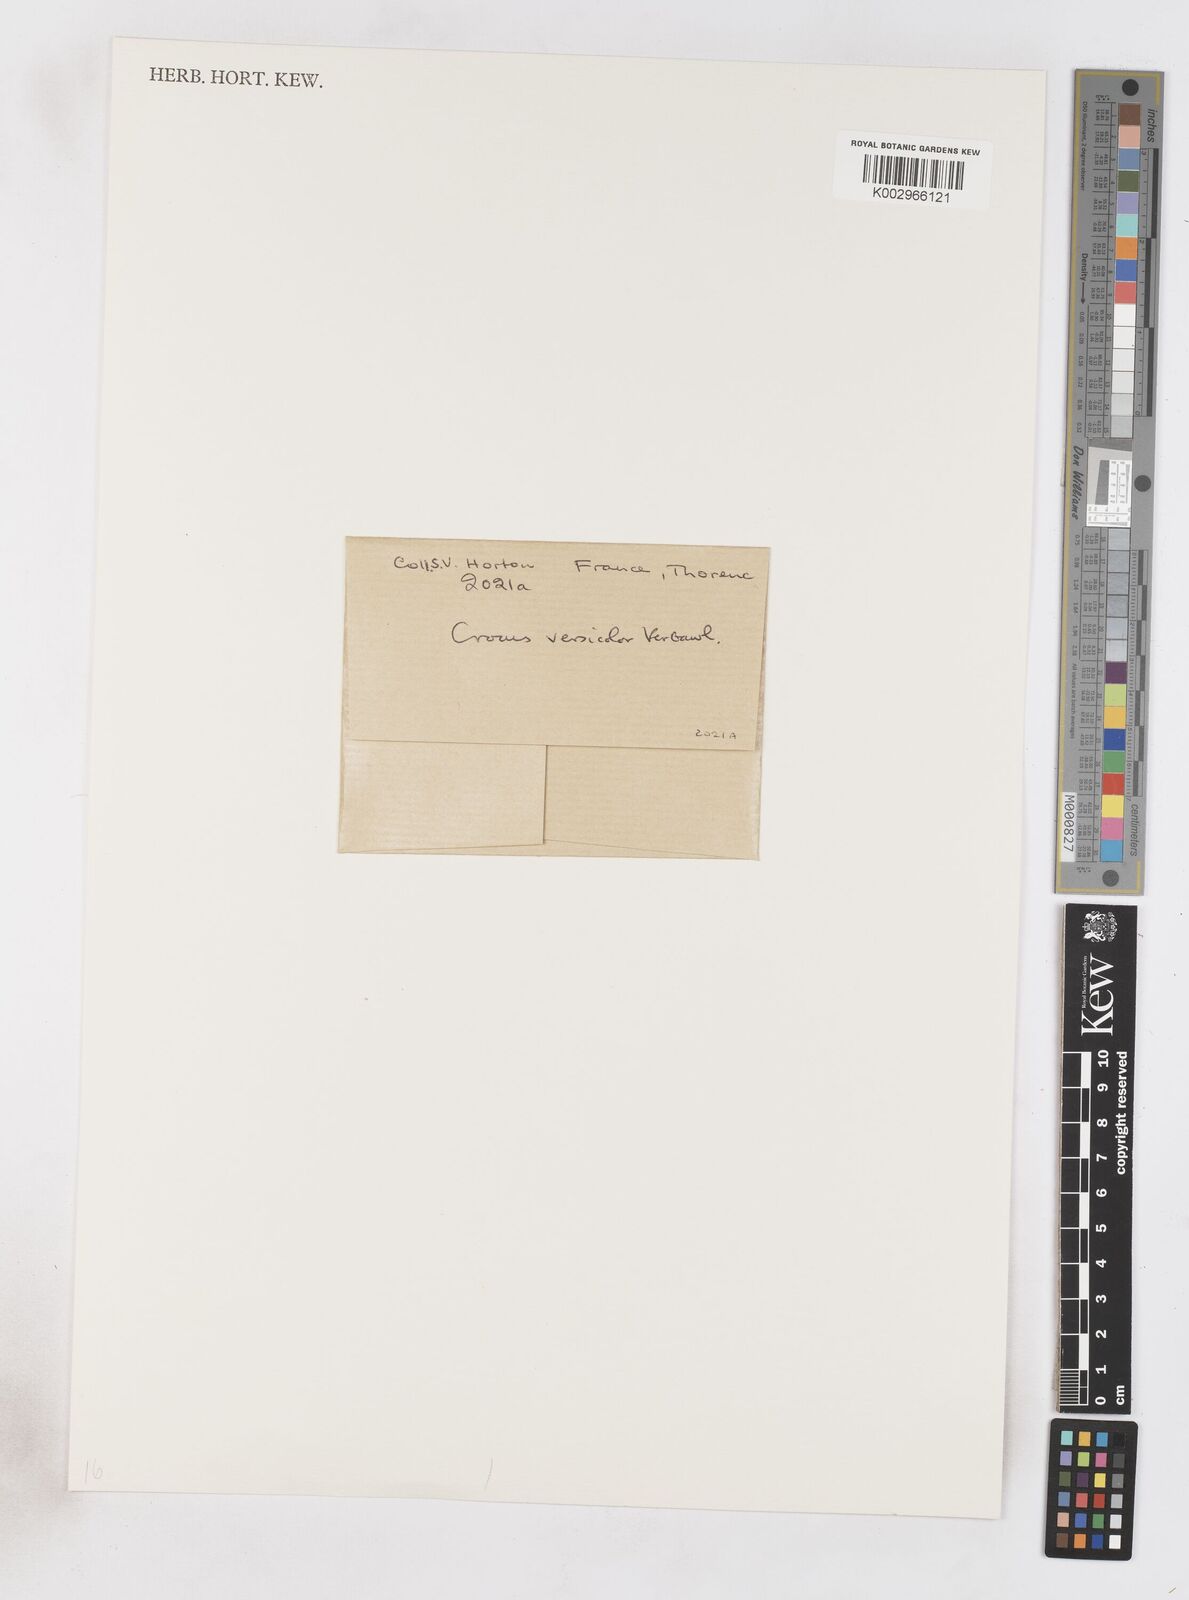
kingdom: Plantae
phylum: Tracheophyta
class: Liliopsida
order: Asparagales
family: Iridaceae
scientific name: Iridaceae
